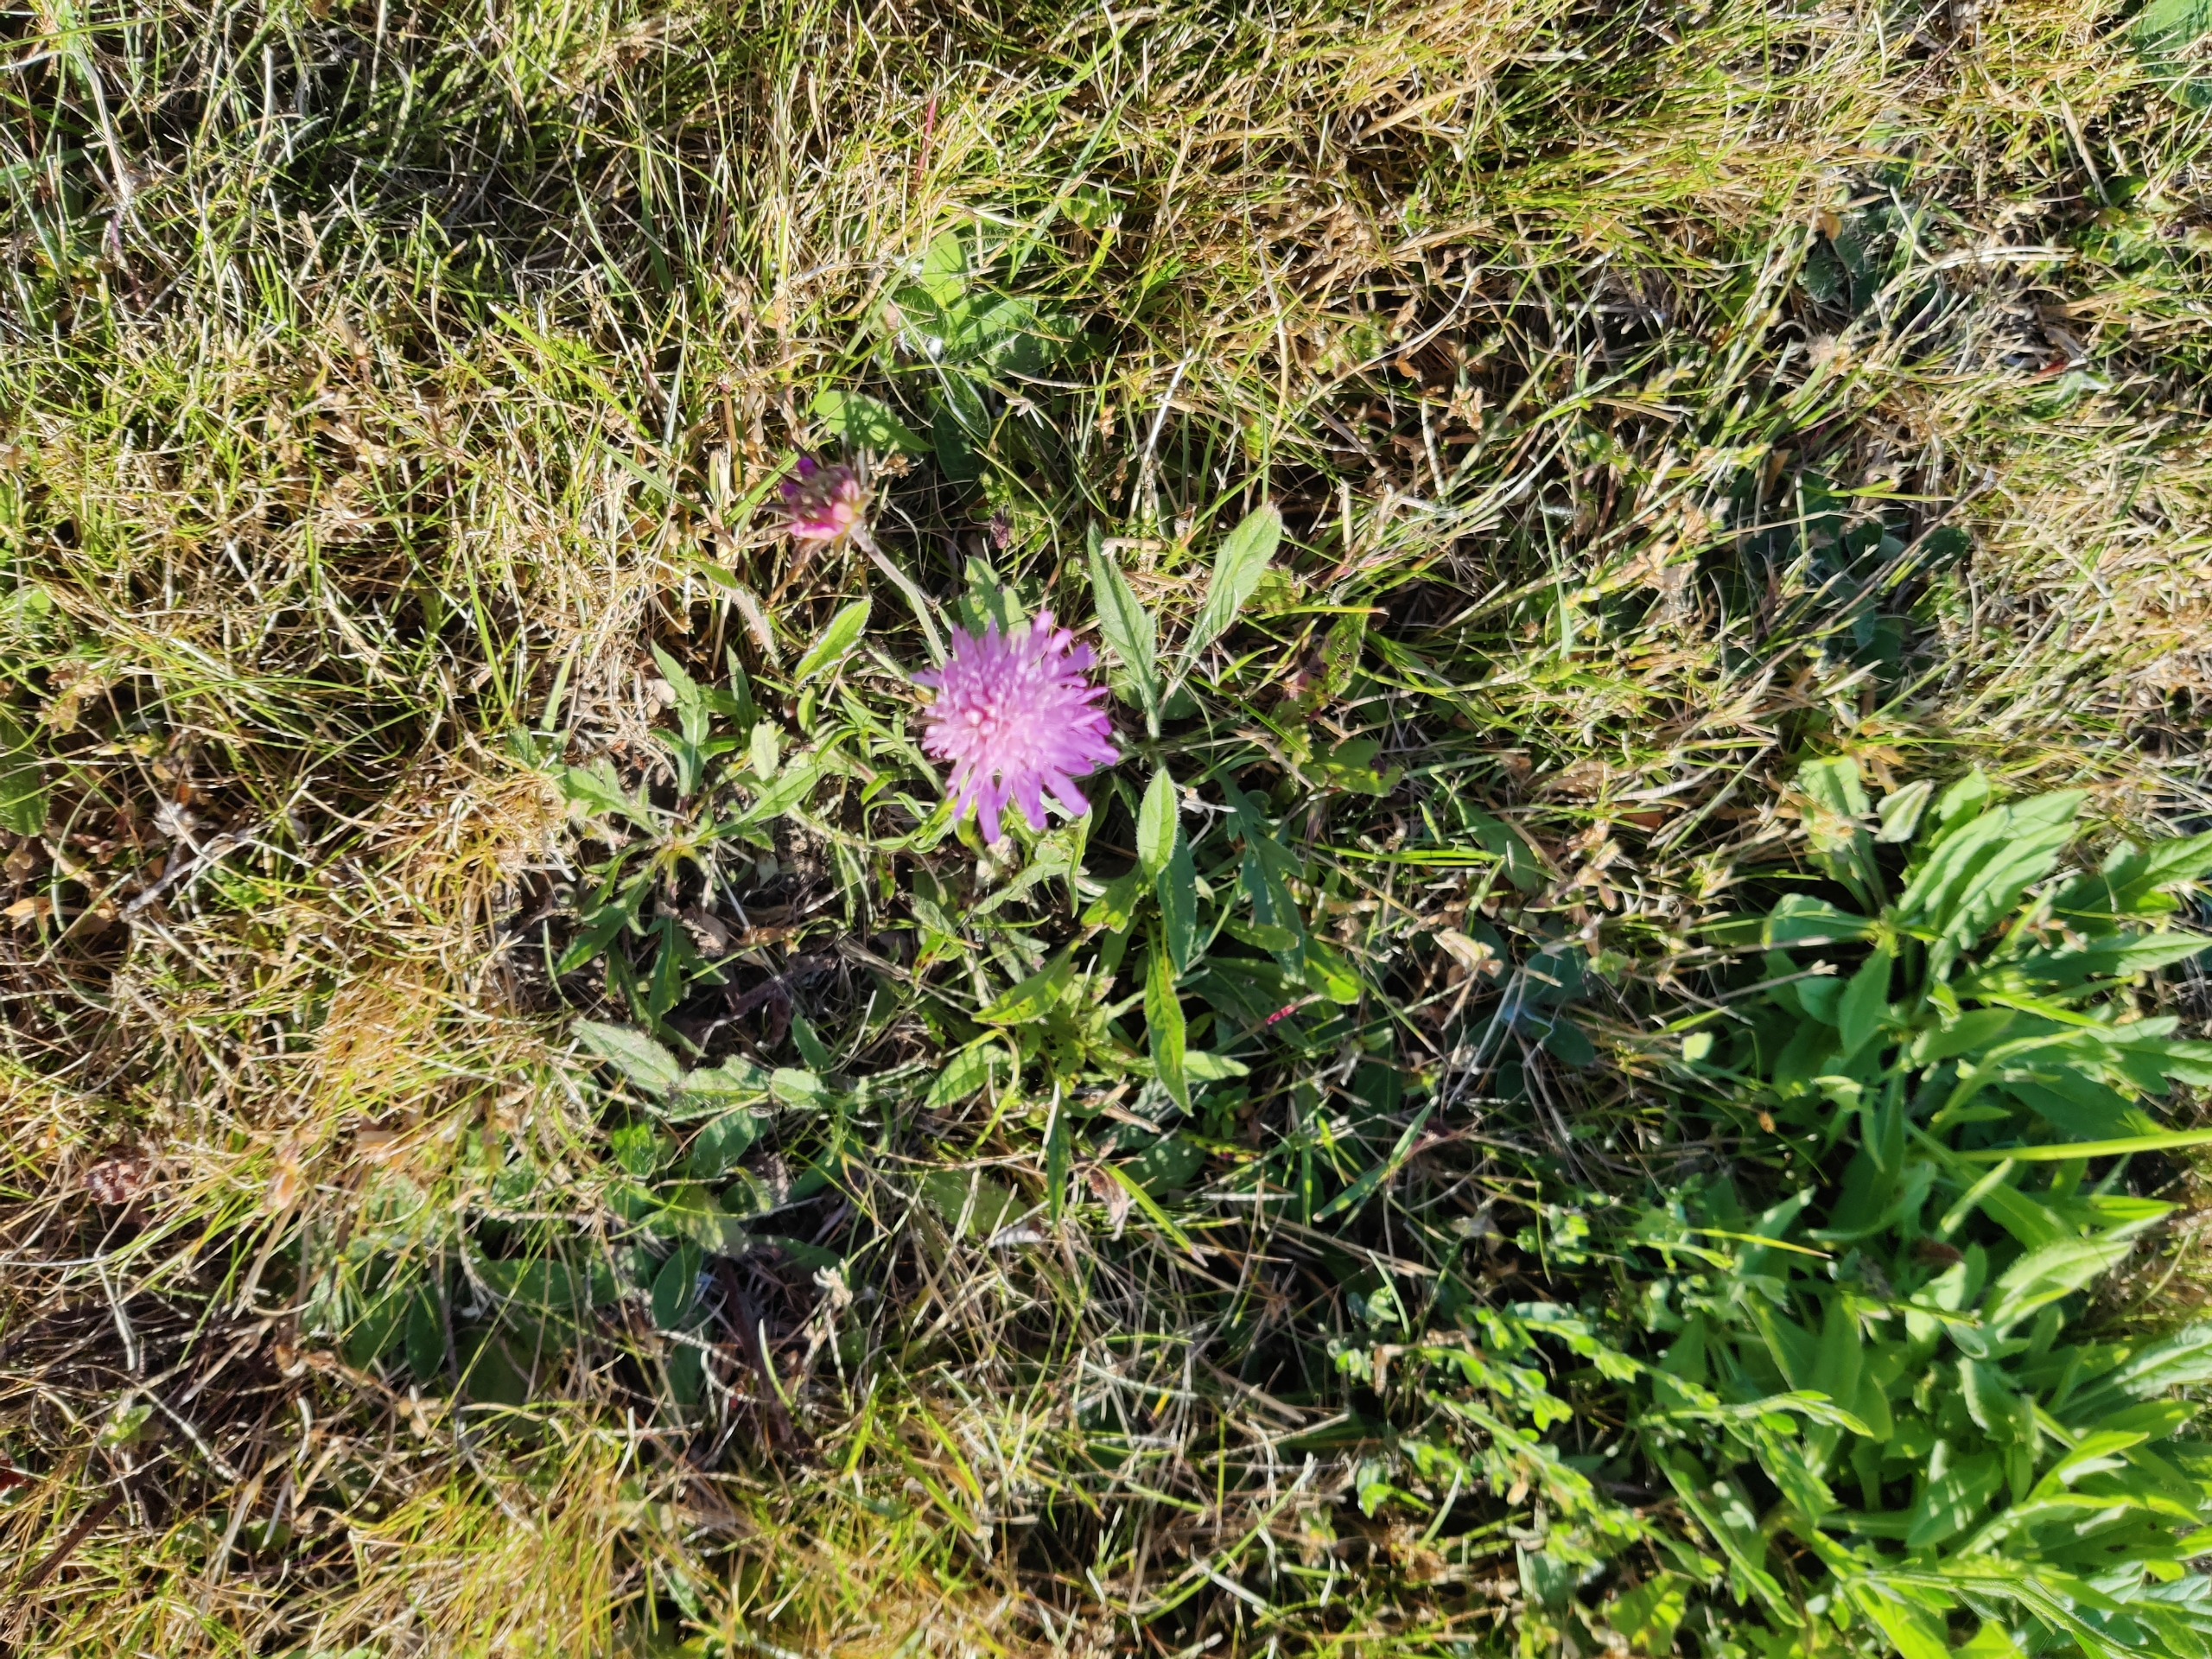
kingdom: Plantae
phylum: Tracheophyta
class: Magnoliopsida
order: Dipsacales
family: Caprifoliaceae
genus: Knautia
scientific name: Knautia arvensis
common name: Blåhat
